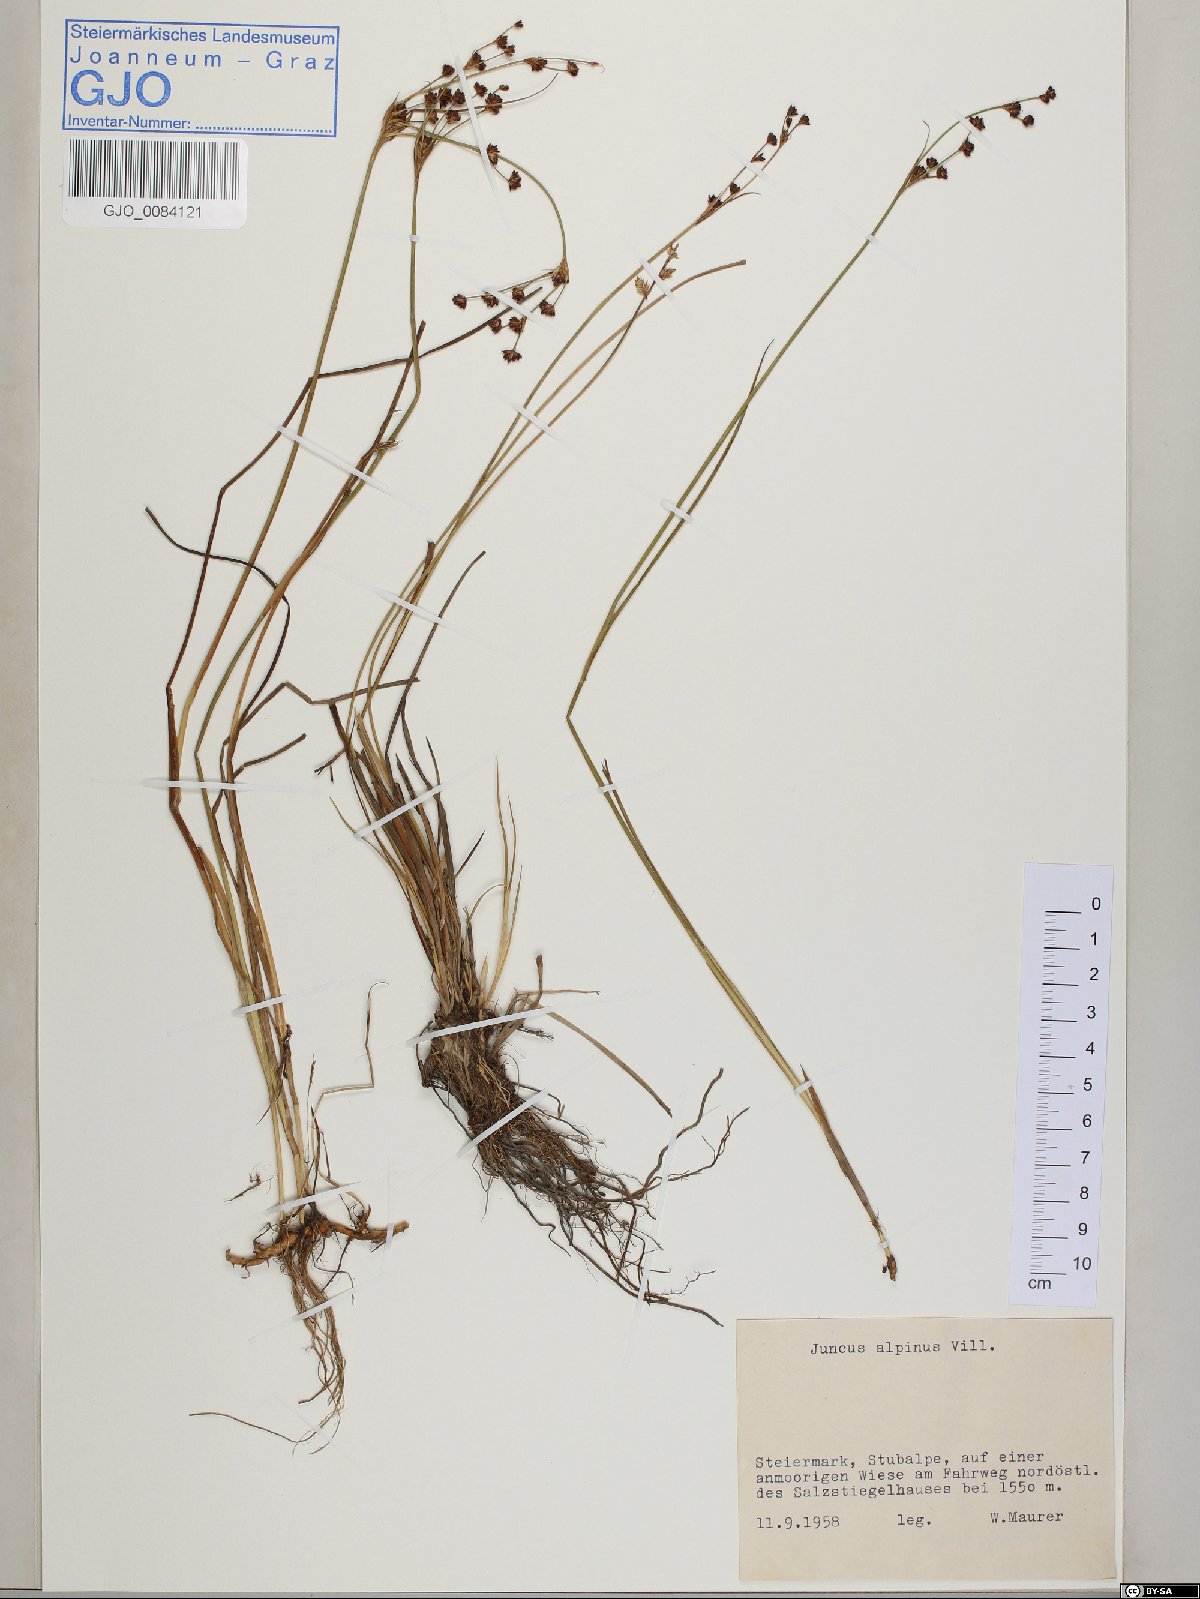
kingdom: Plantae
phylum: Tracheophyta
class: Liliopsida
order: Poales
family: Juncaceae
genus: Juncus
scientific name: Juncus alpinoarticulatus
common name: Alpine rush
